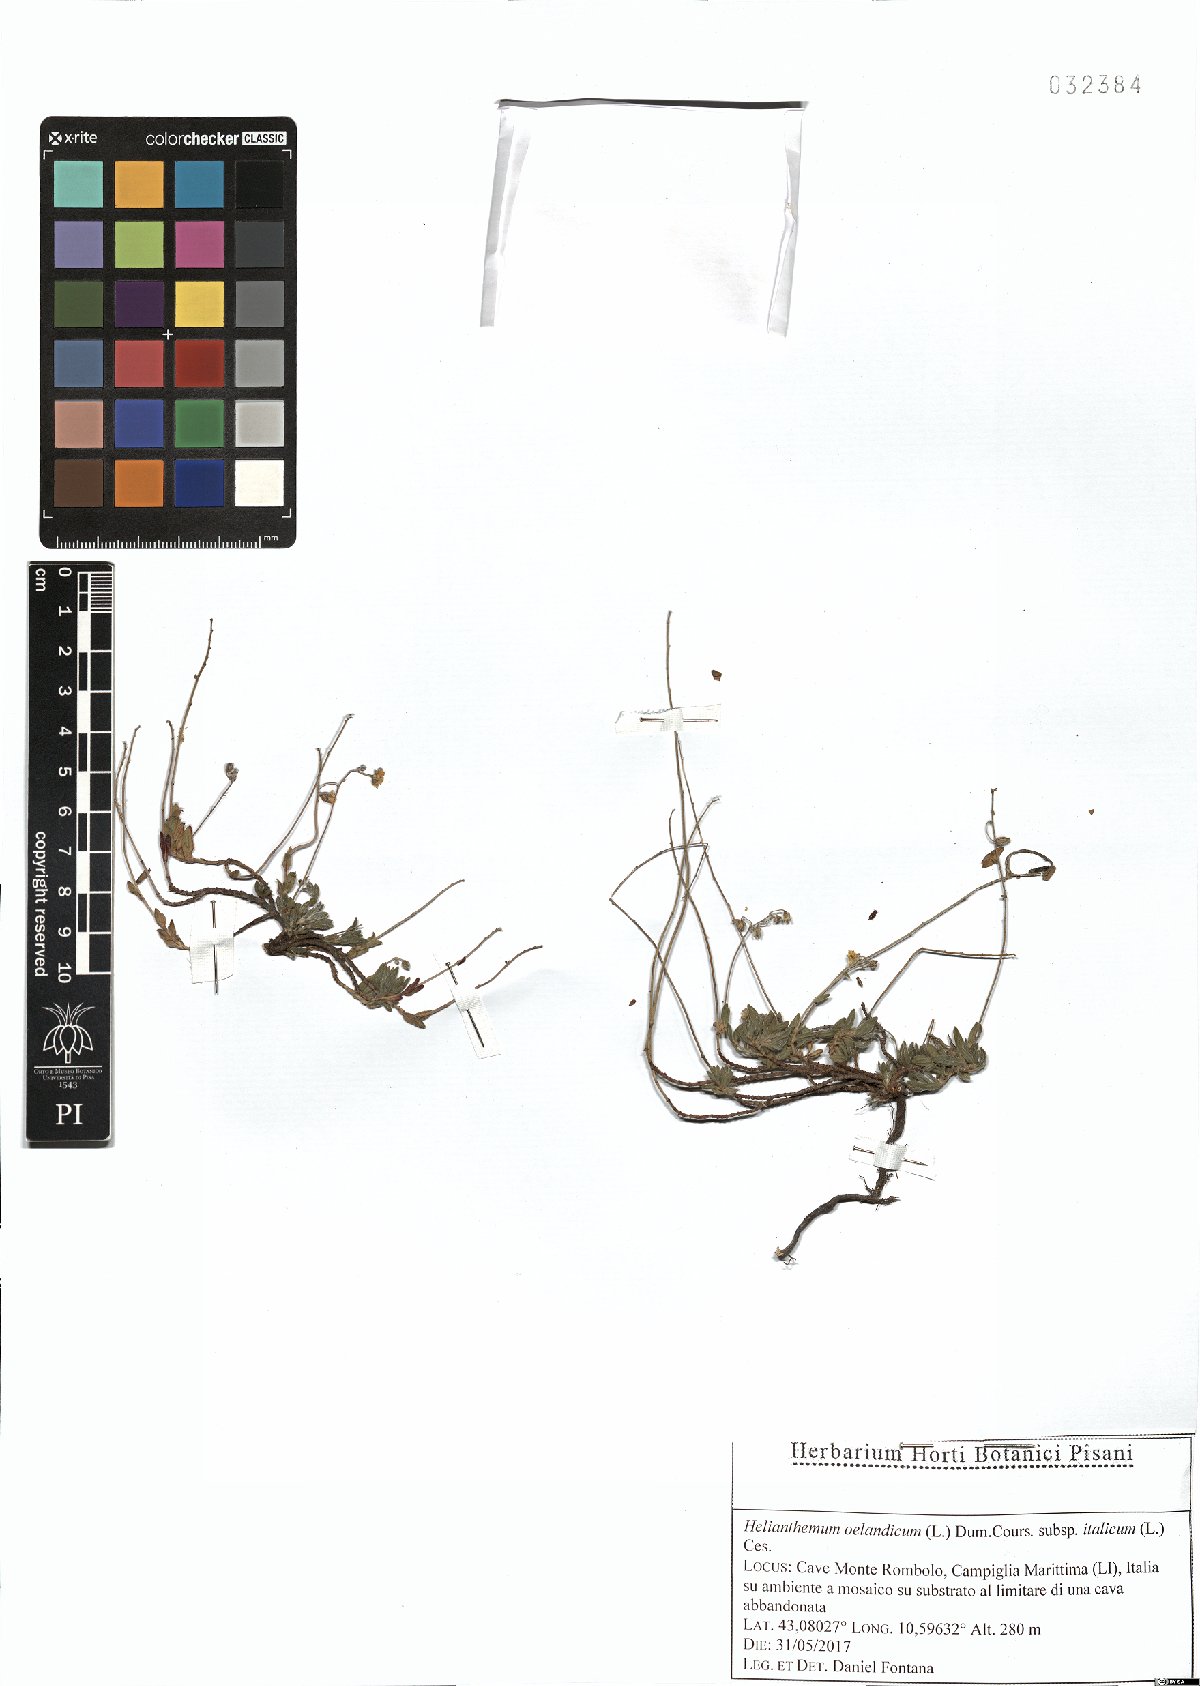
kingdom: Plantae
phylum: Tracheophyta
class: Magnoliopsida
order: Malvales
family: Cistaceae
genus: Helianthemum
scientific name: Helianthemum italicum
